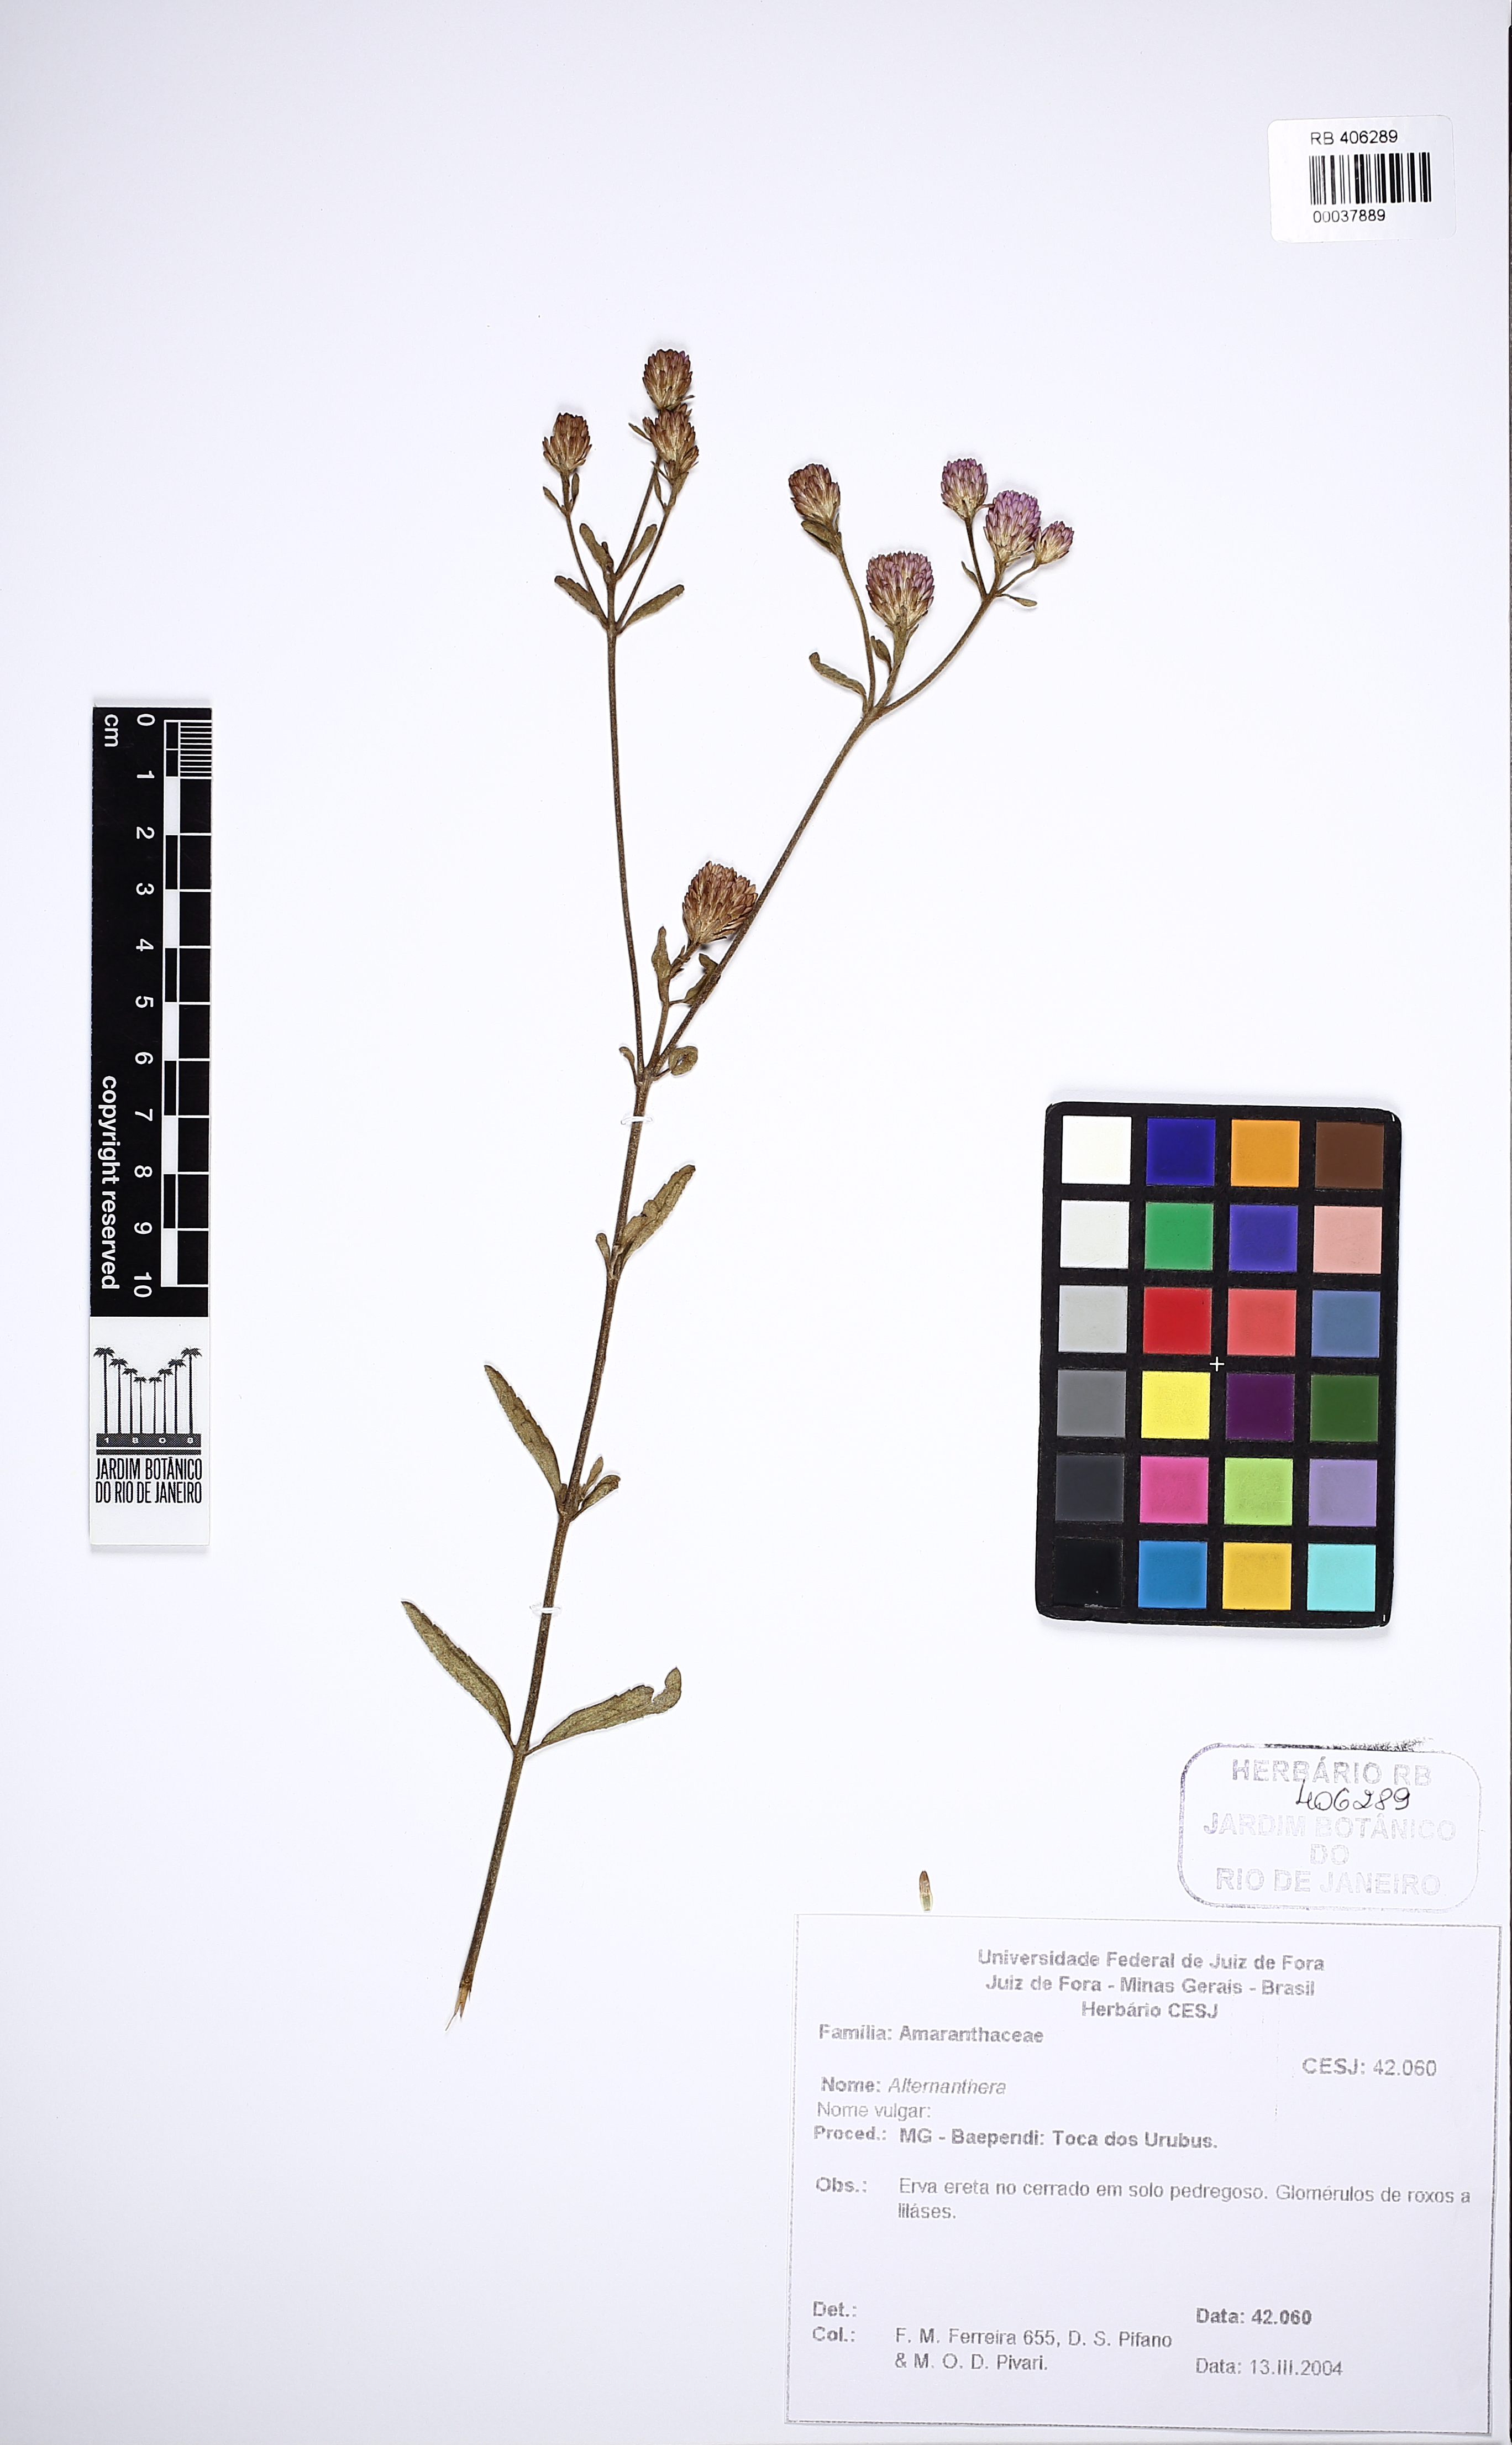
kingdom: Plantae
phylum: Tracheophyta
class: Magnoliopsida
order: Asterales
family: Asteraceae
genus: Chromolaena
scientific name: Chromolaena
